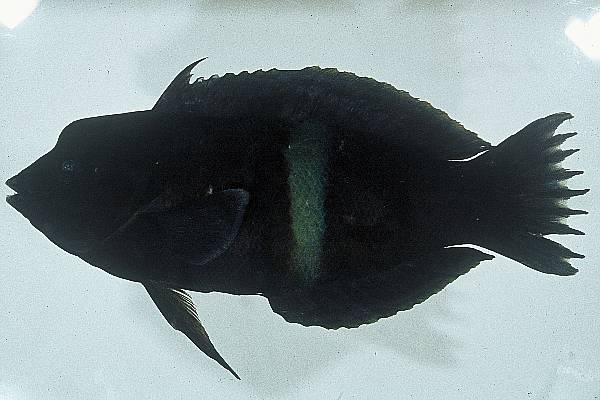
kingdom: Animalia
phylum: Chordata
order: Perciformes
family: Labridae
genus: Coris
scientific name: Coris aygula
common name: Clown coris
